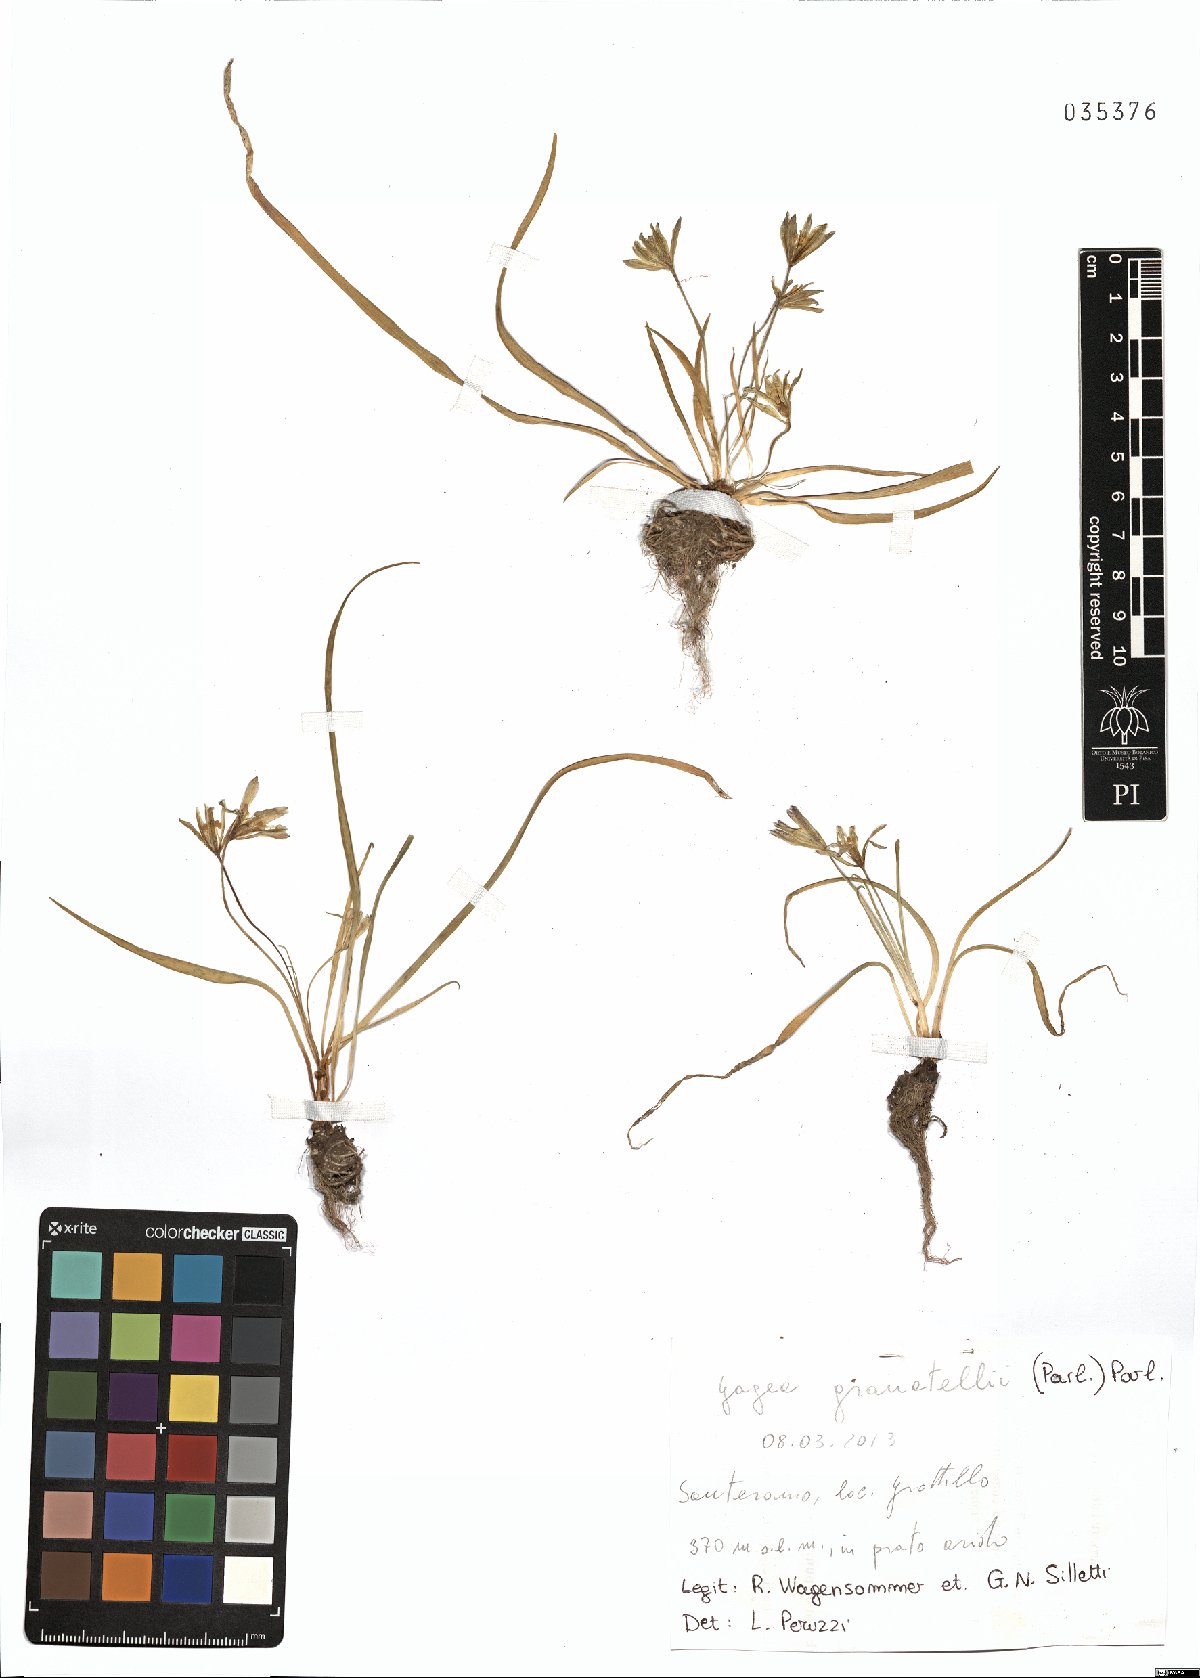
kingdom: Plantae
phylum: Tracheophyta
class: Liliopsida
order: Liliales
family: Liliaceae
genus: Gagea
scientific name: Gagea granatellii
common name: Granatelli’s gagea
